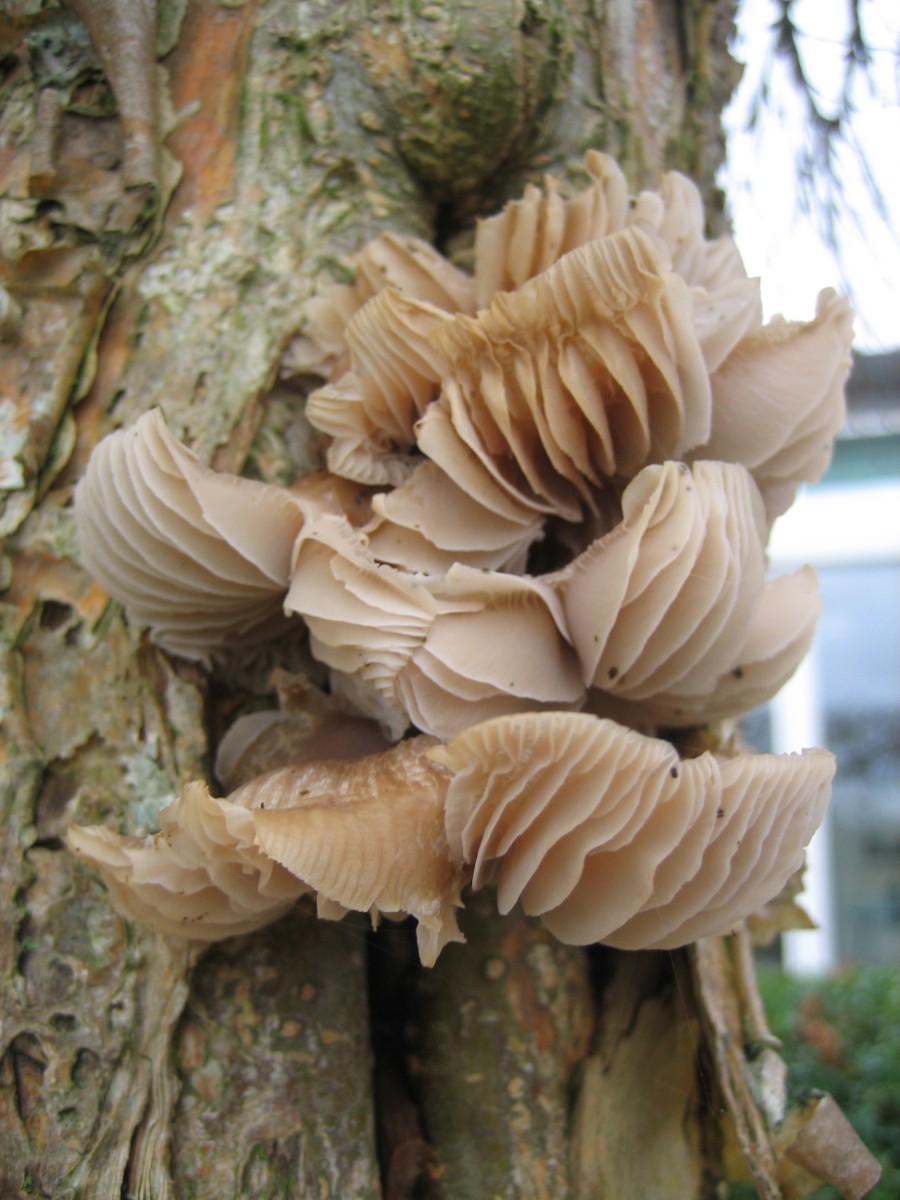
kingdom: Fungi
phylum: Basidiomycota
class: Agaricomycetes
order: Agaricales
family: Mycenaceae
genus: Mycena
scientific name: Mycena galericulata
